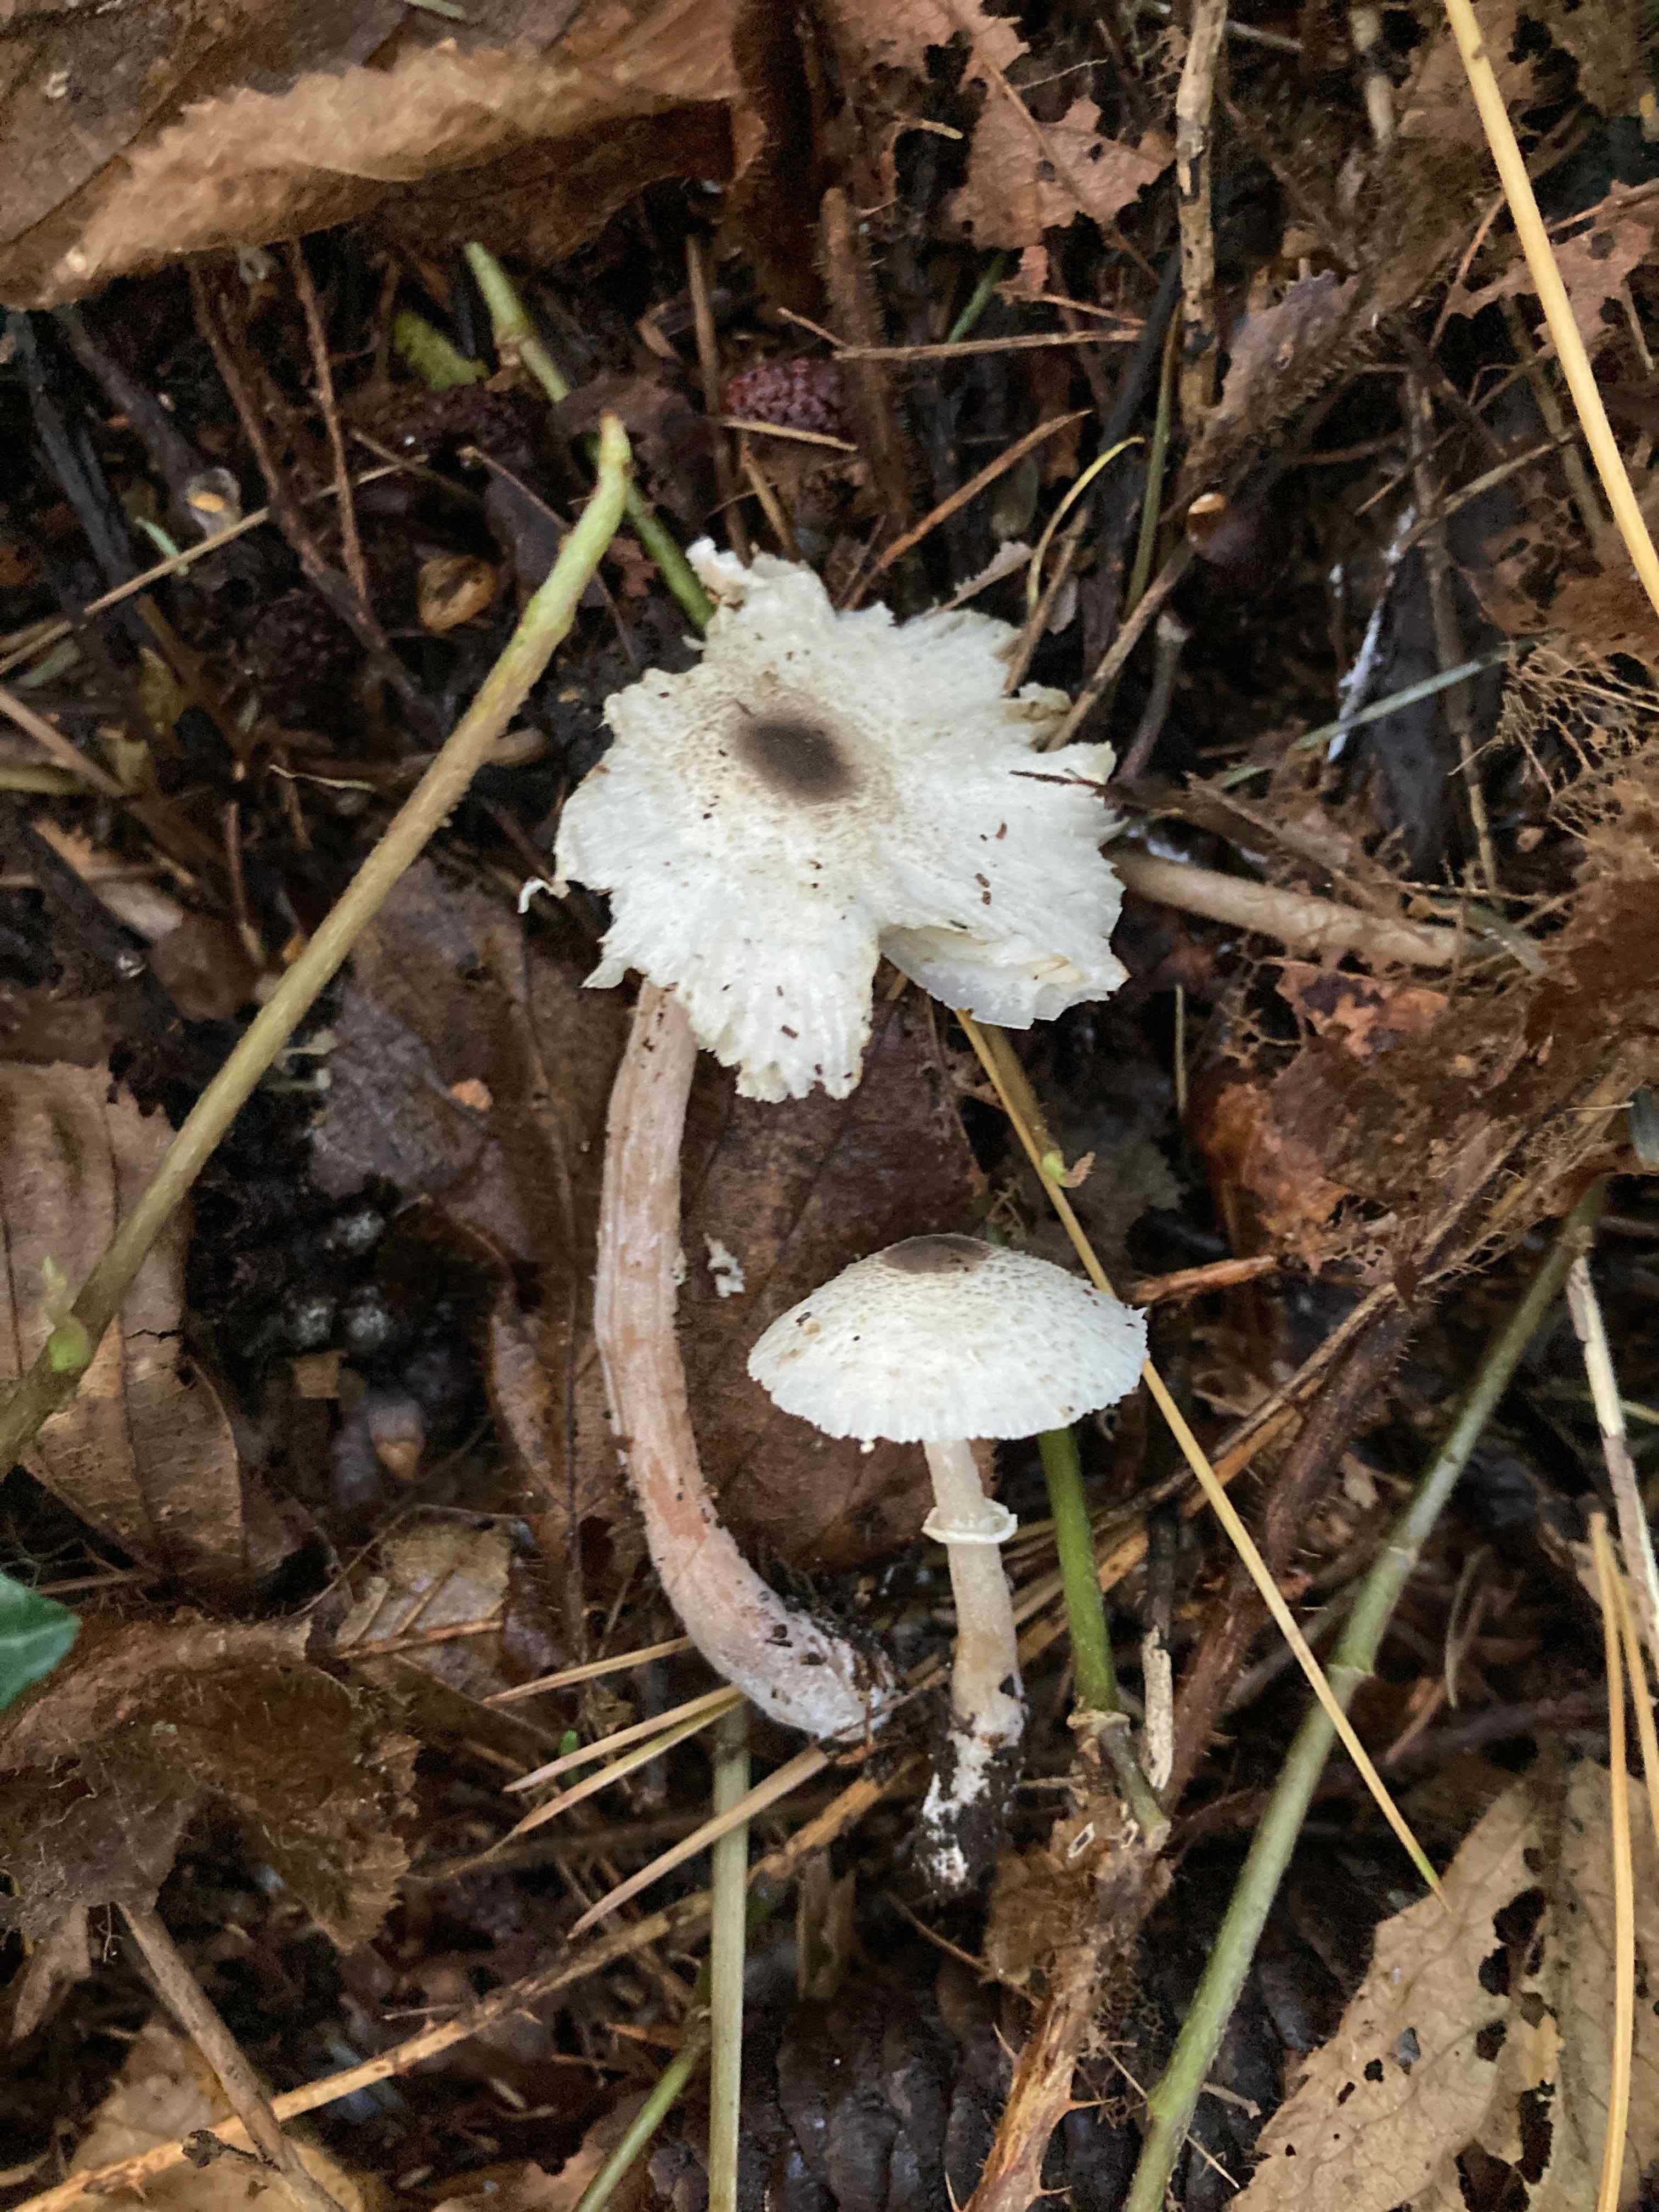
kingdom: Fungi
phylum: Basidiomycota
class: Agaricomycetes
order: Agaricales
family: Agaricaceae
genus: Leucocoprinus
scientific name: Leucocoprinus brebissonii
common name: gråsort silkehat
